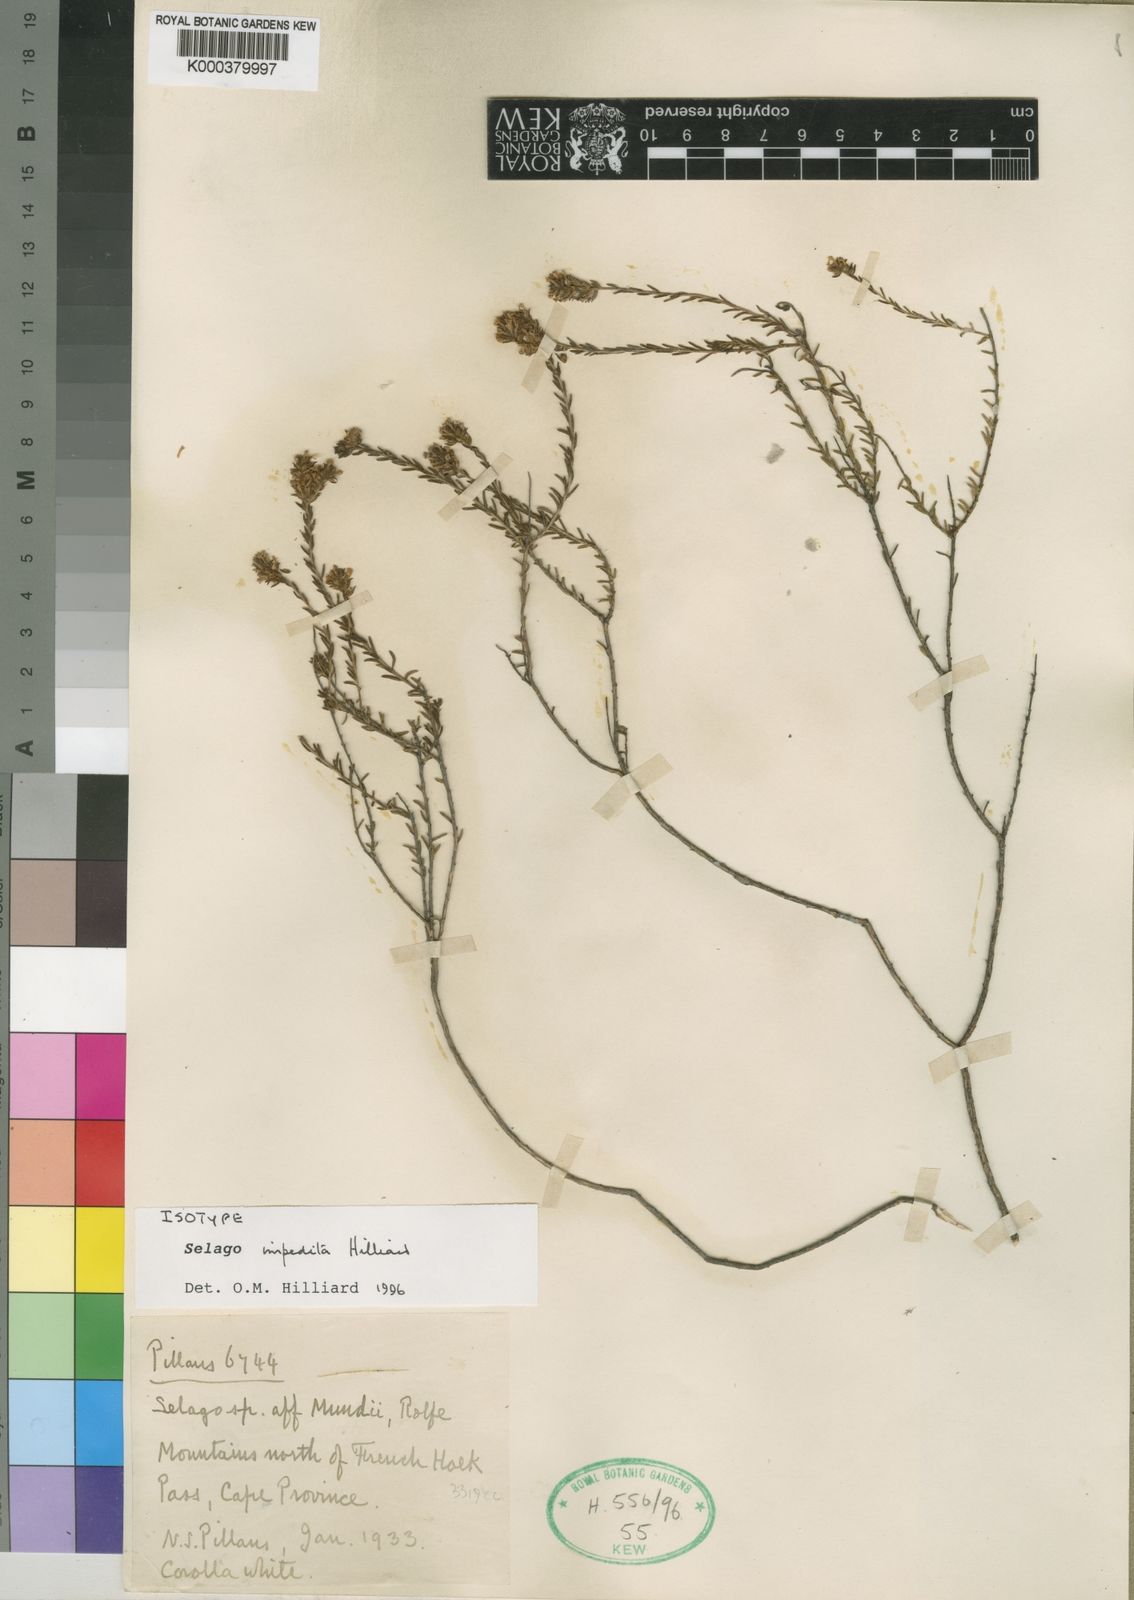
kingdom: Plantae
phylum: Tracheophyta
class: Magnoliopsida
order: Lamiales
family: Scrophulariaceae
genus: Selago
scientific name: Selago impedita
